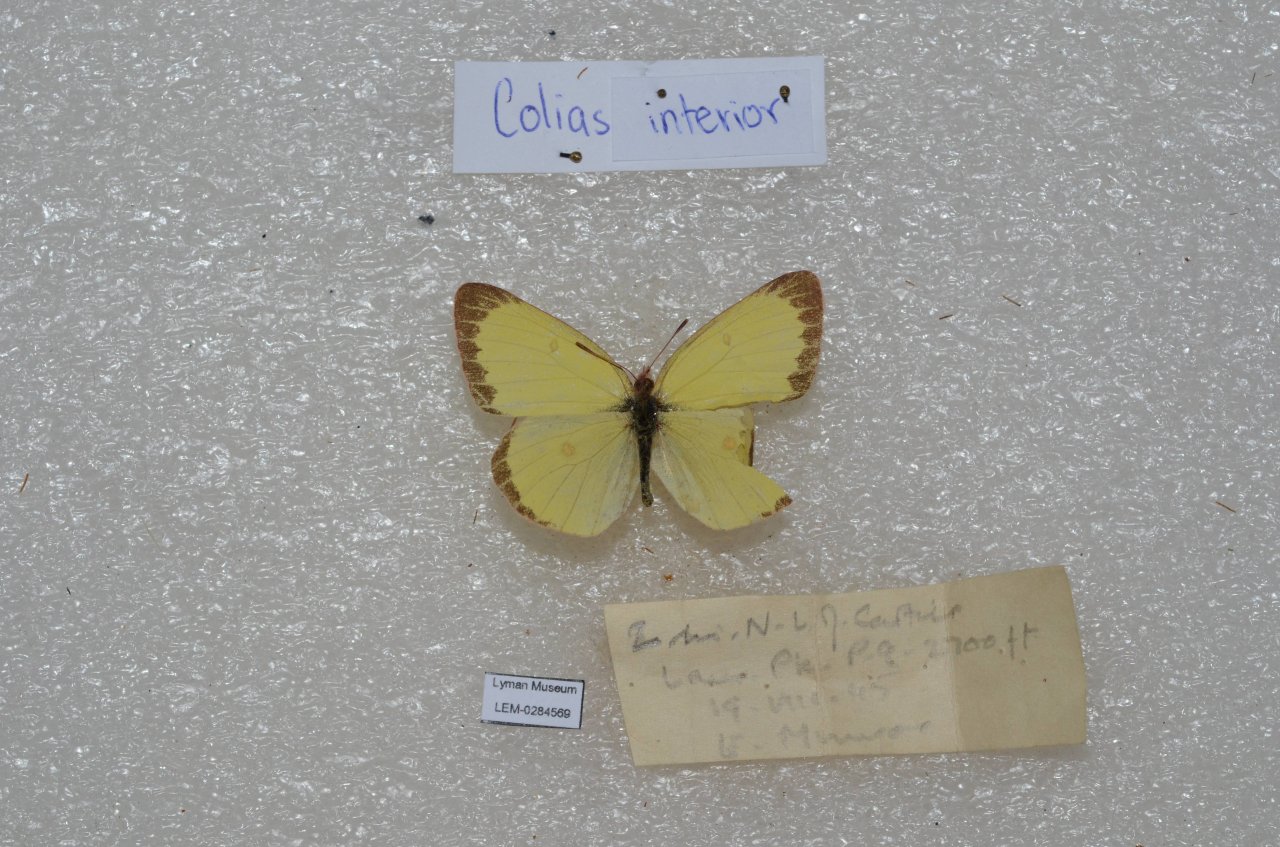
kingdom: Animalia
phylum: Arthropoda
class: Insecta
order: Lepidoptera
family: Pieridae
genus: Colias
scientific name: Colias interior
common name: Pink-edged Sulphur
